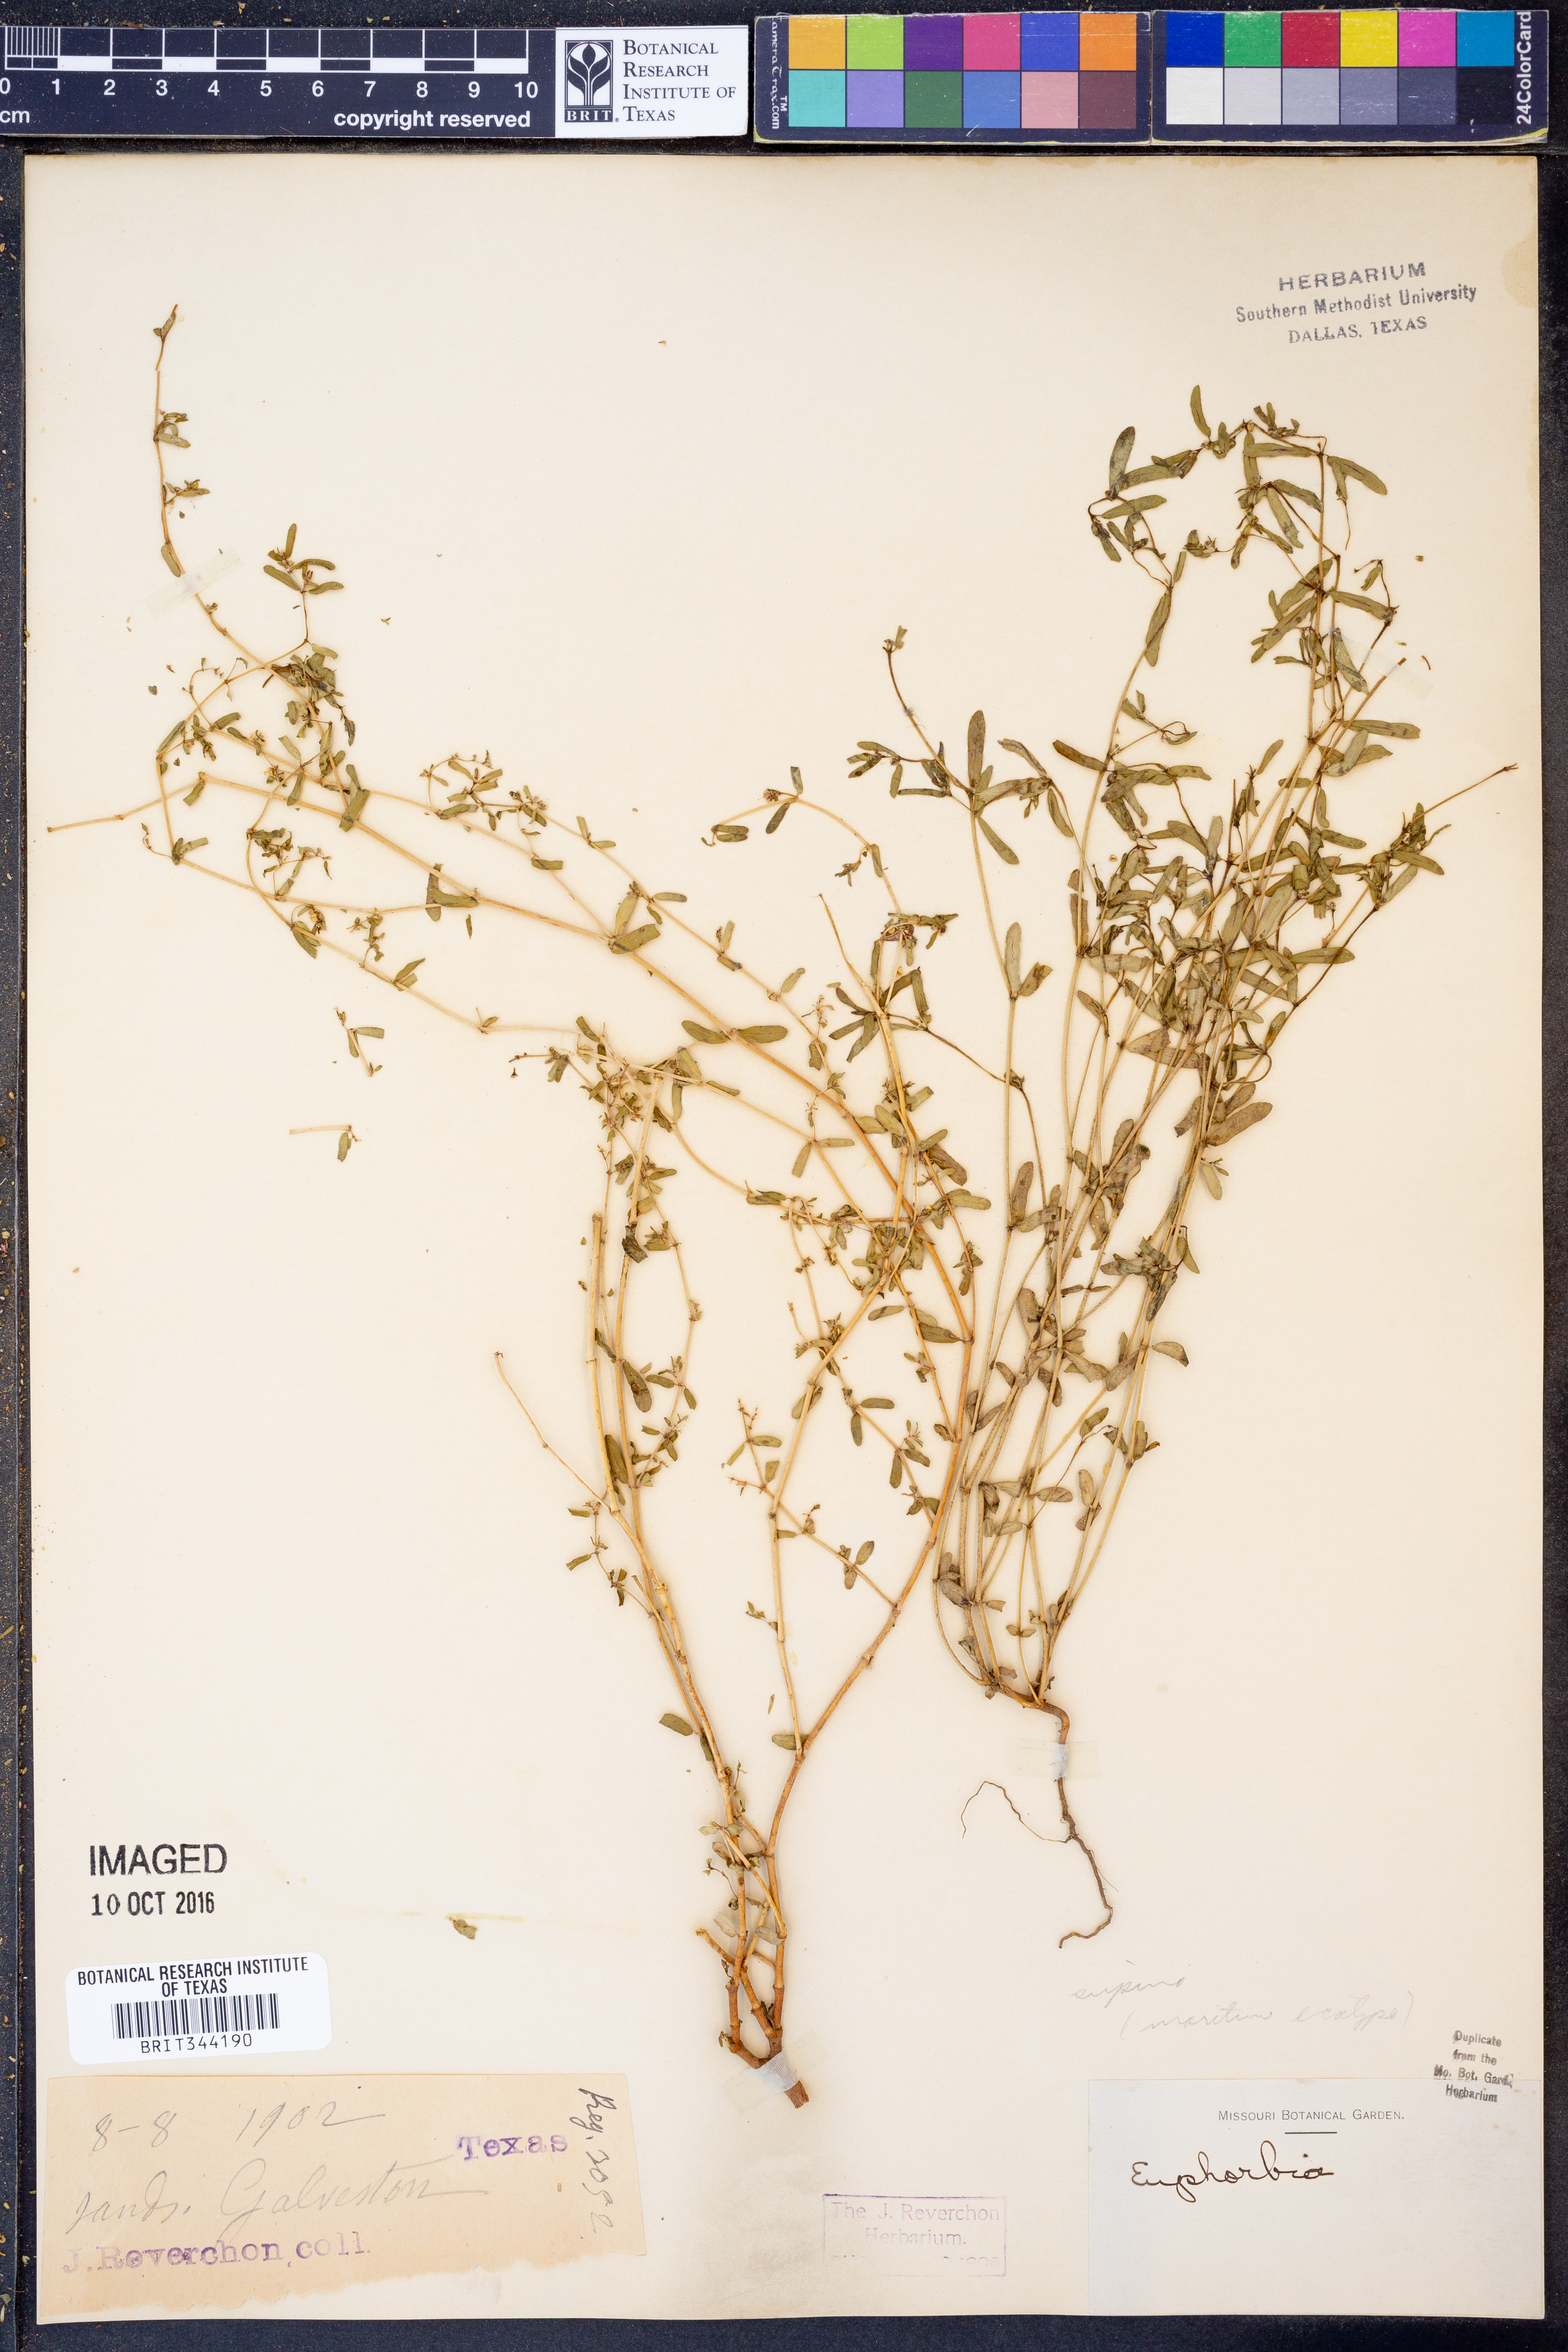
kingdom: Plantae
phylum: Tracheophyta
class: Magnoliopsida
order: Malpighiales
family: Euphorbiaceae
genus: Euphorbia
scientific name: Euphorbia maculata
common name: Spotted spurge
